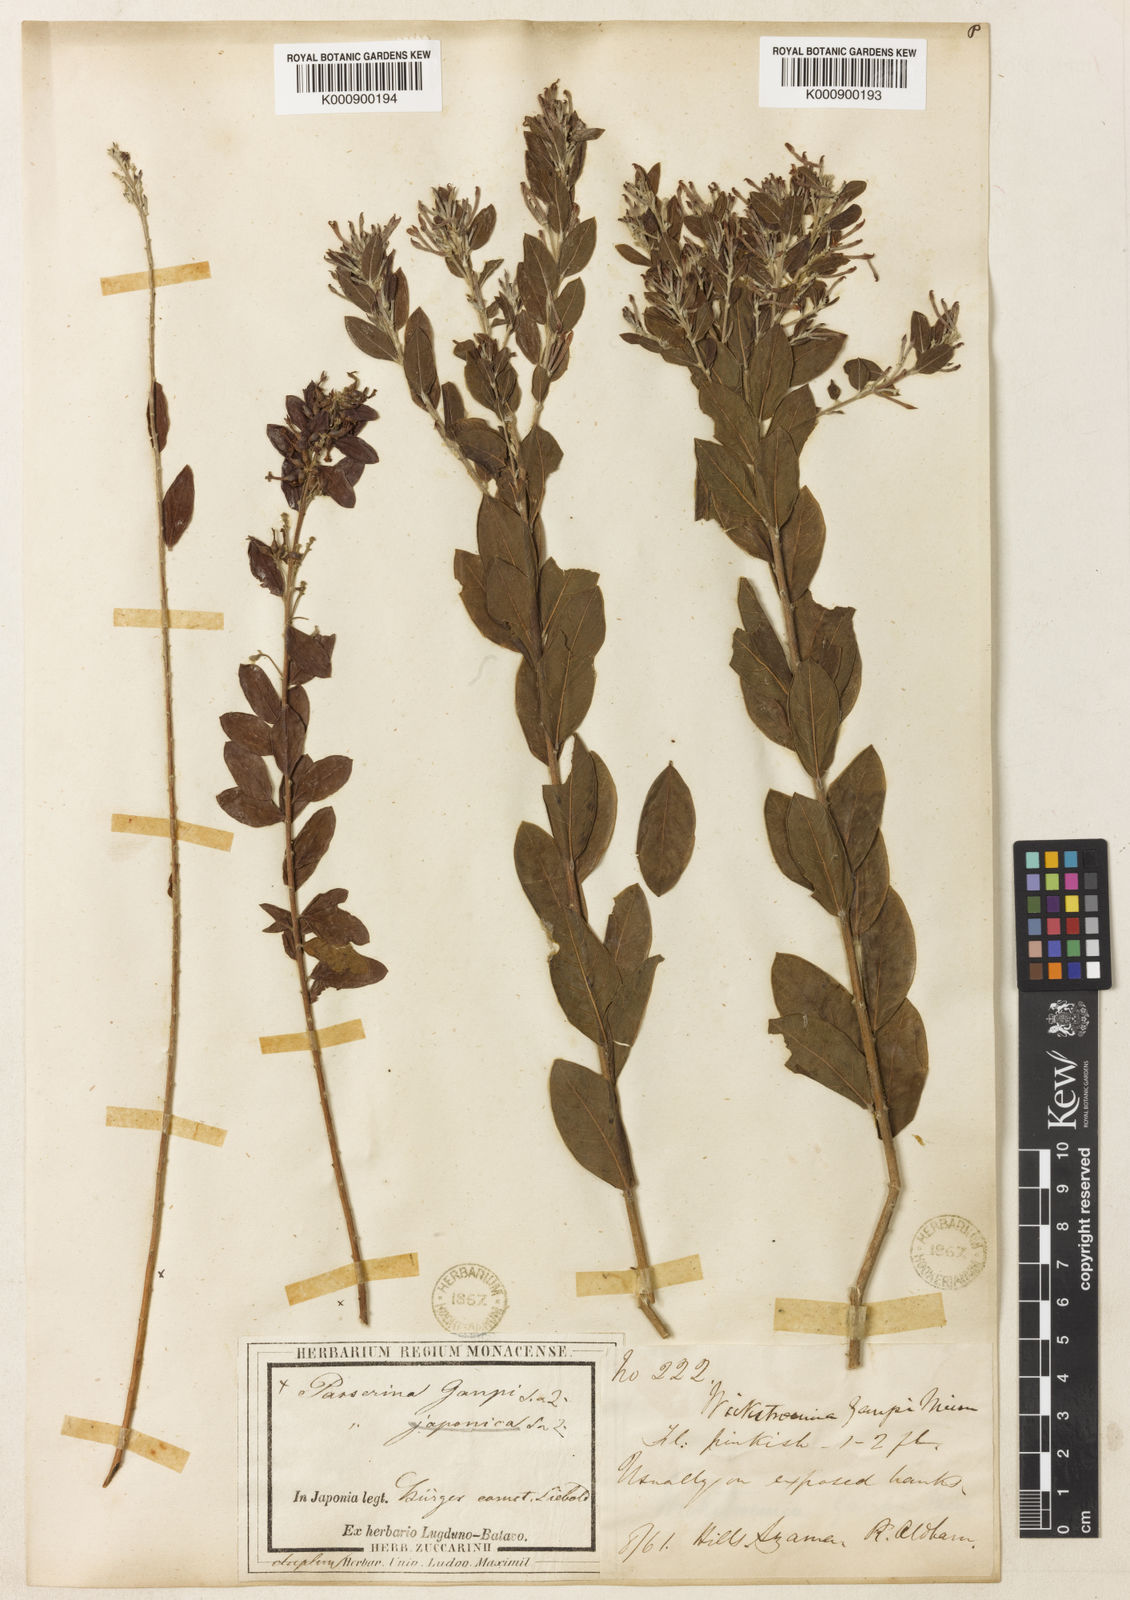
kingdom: Plantae
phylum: Tracheophyta
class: Magnoliopsida
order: Malvales
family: Thymelaeaceae
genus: Wikstroemia
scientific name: Wikstroemia canescens
